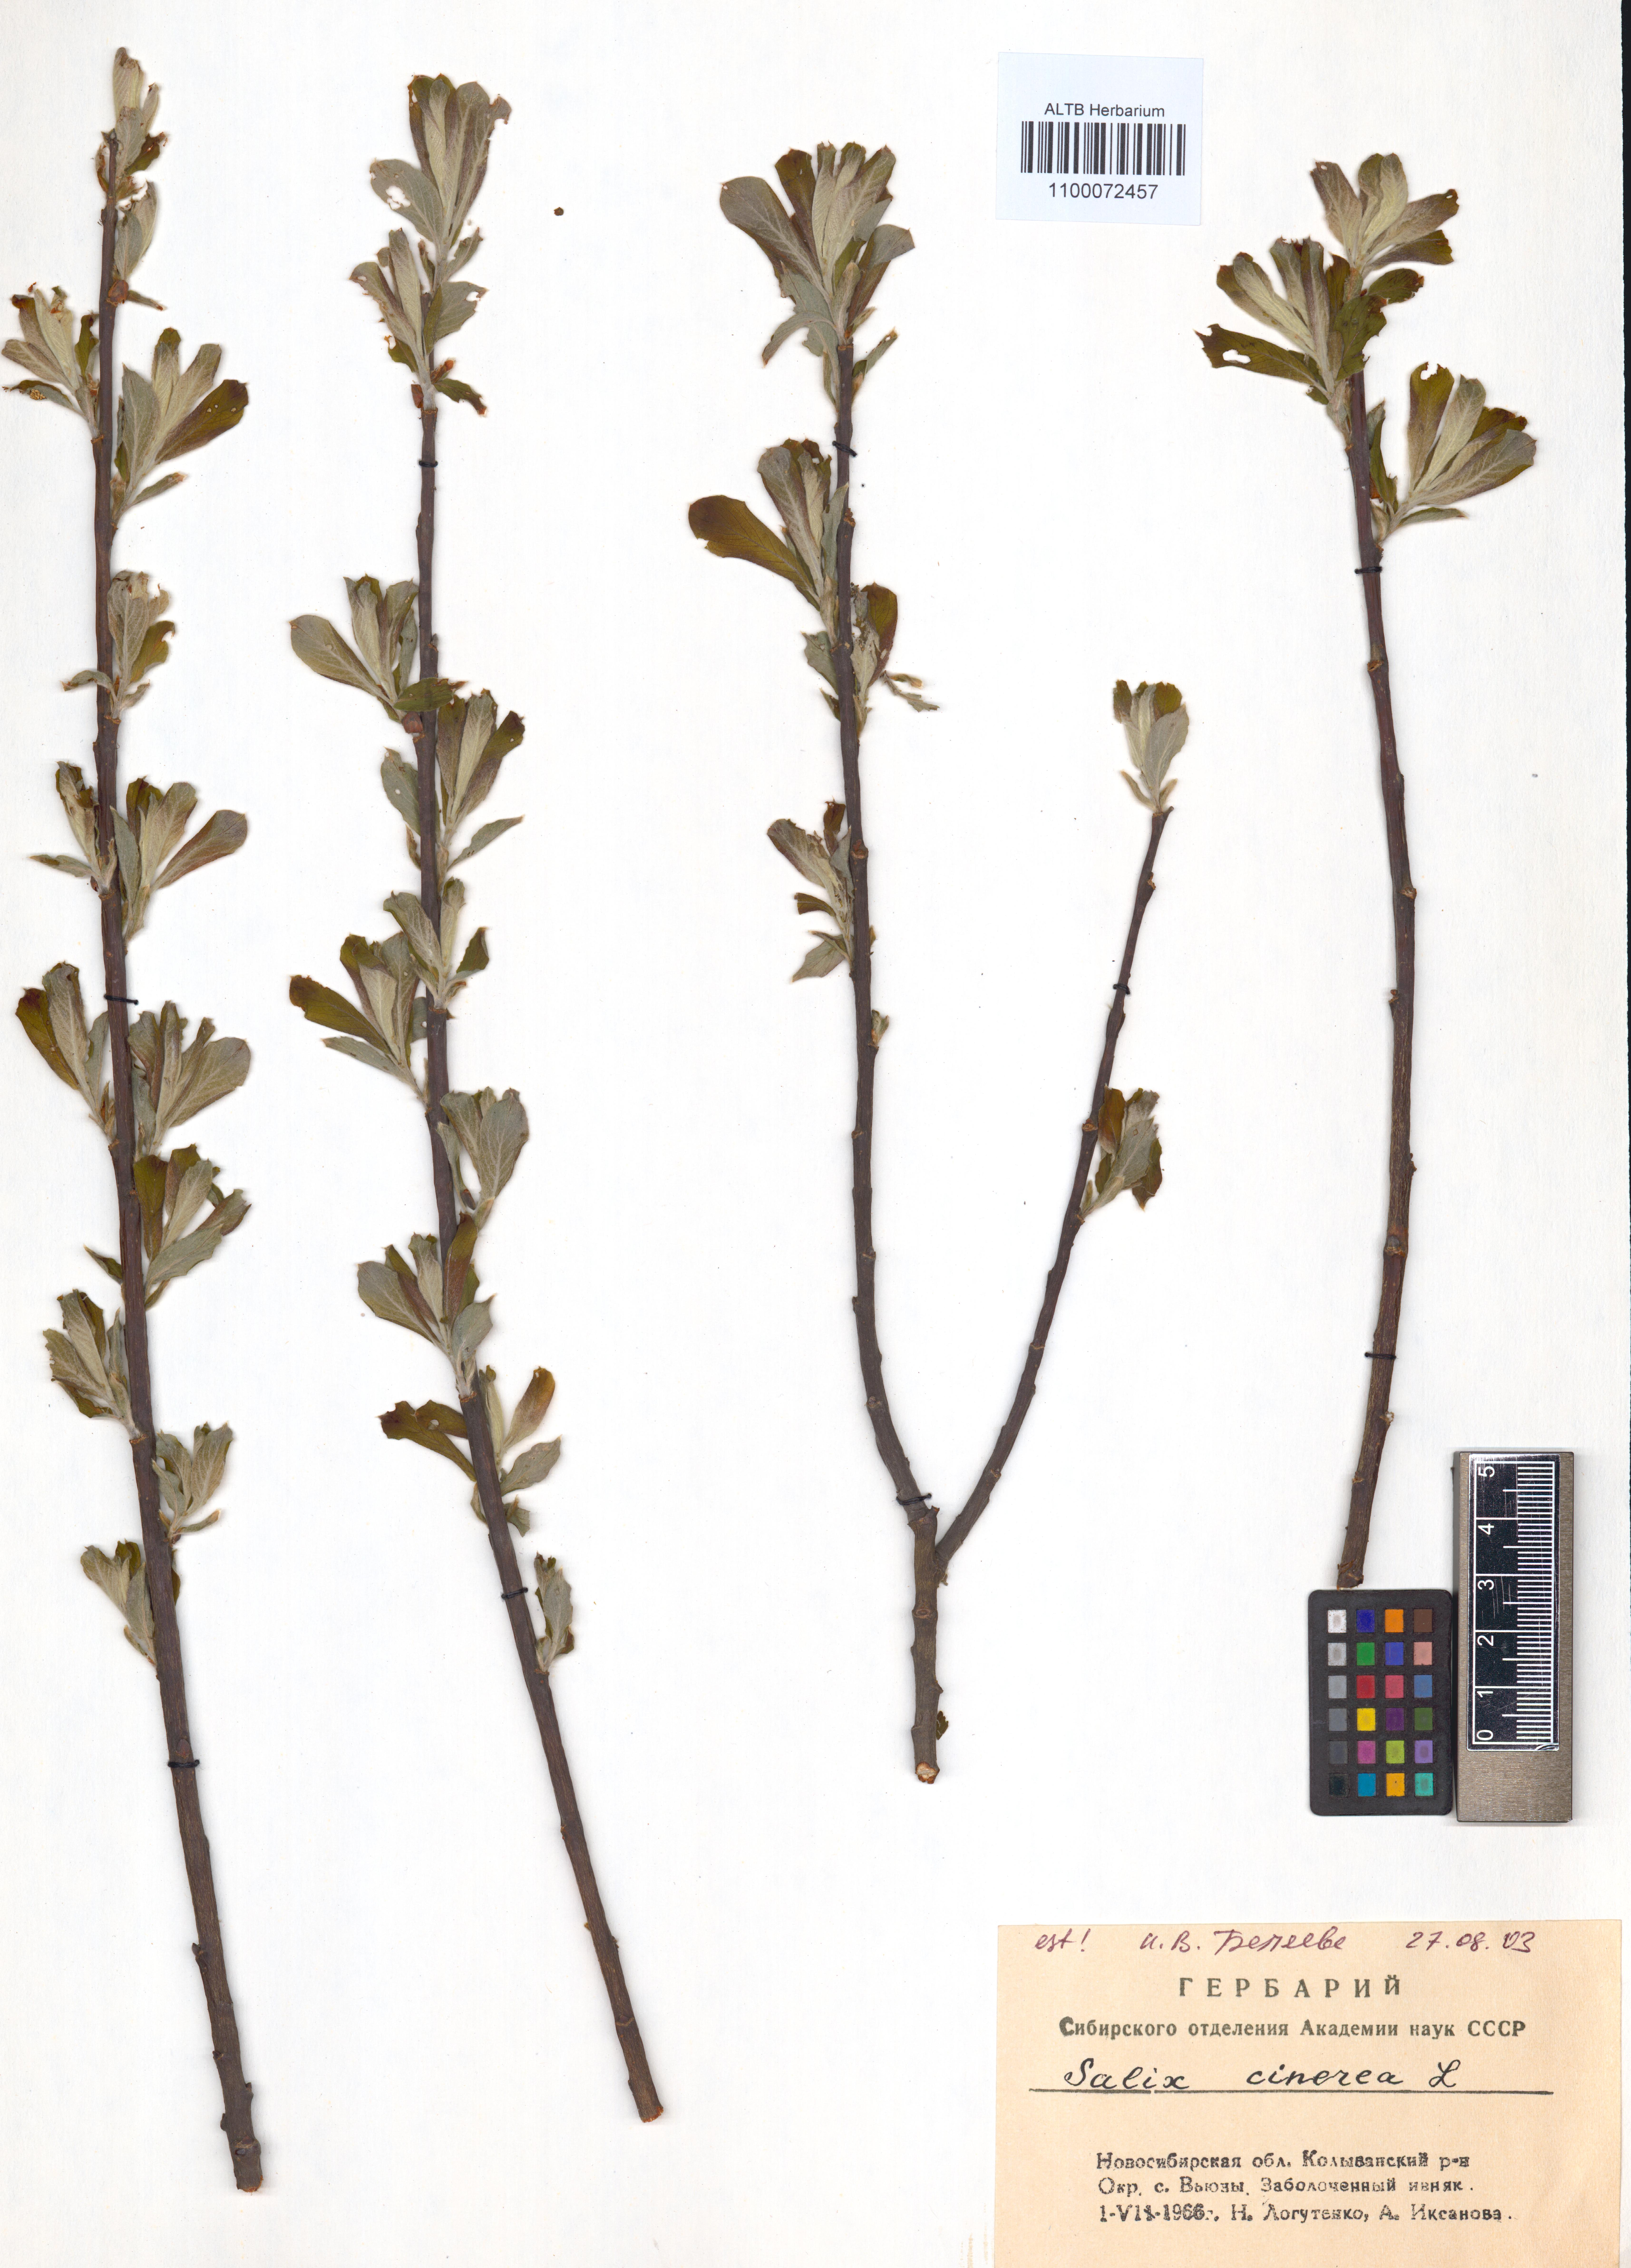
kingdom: Plantae
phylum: Tracheophyta
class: Magnoliopsida
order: Malpighiales
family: Salicaceae
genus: Salix
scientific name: Salix cinerea
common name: Common sallow
